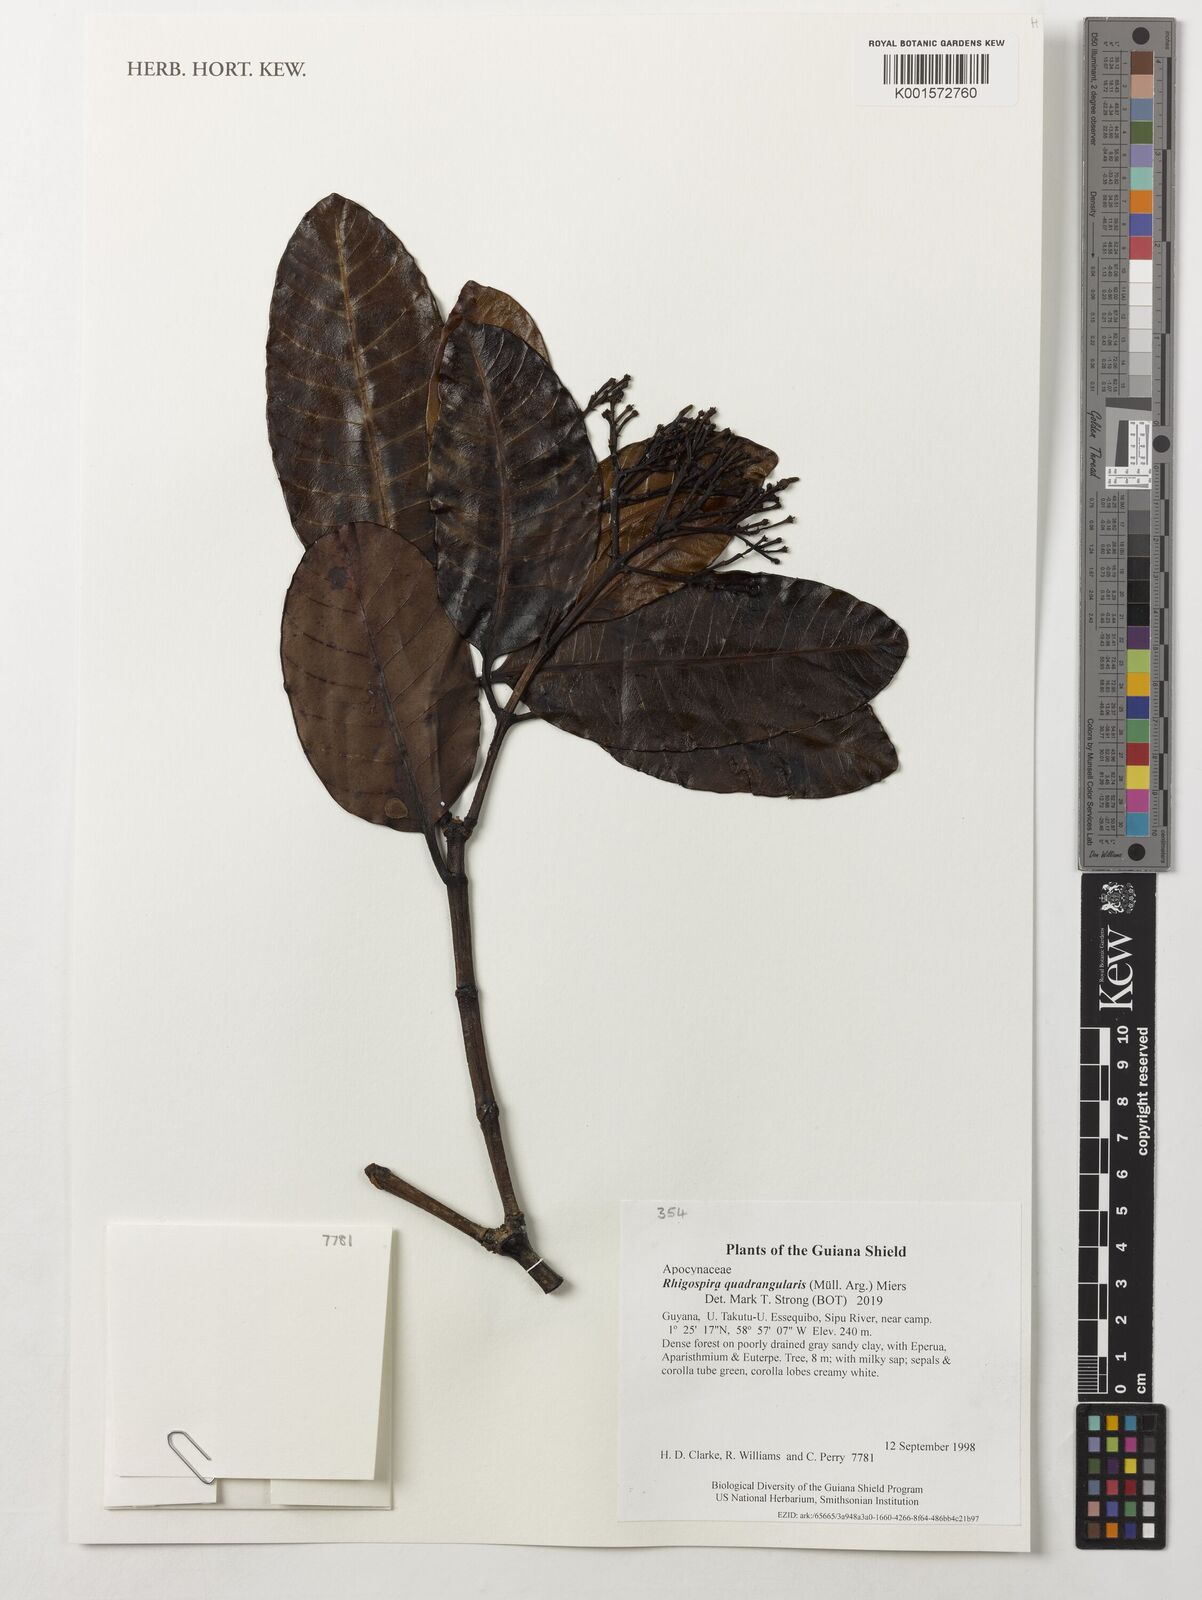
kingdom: Plantae
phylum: Tracheophyta
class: Magnoliopsida
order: Gentianales
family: Apocynaceae
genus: Rhigospira
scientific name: Rhigospira quadrangularis
